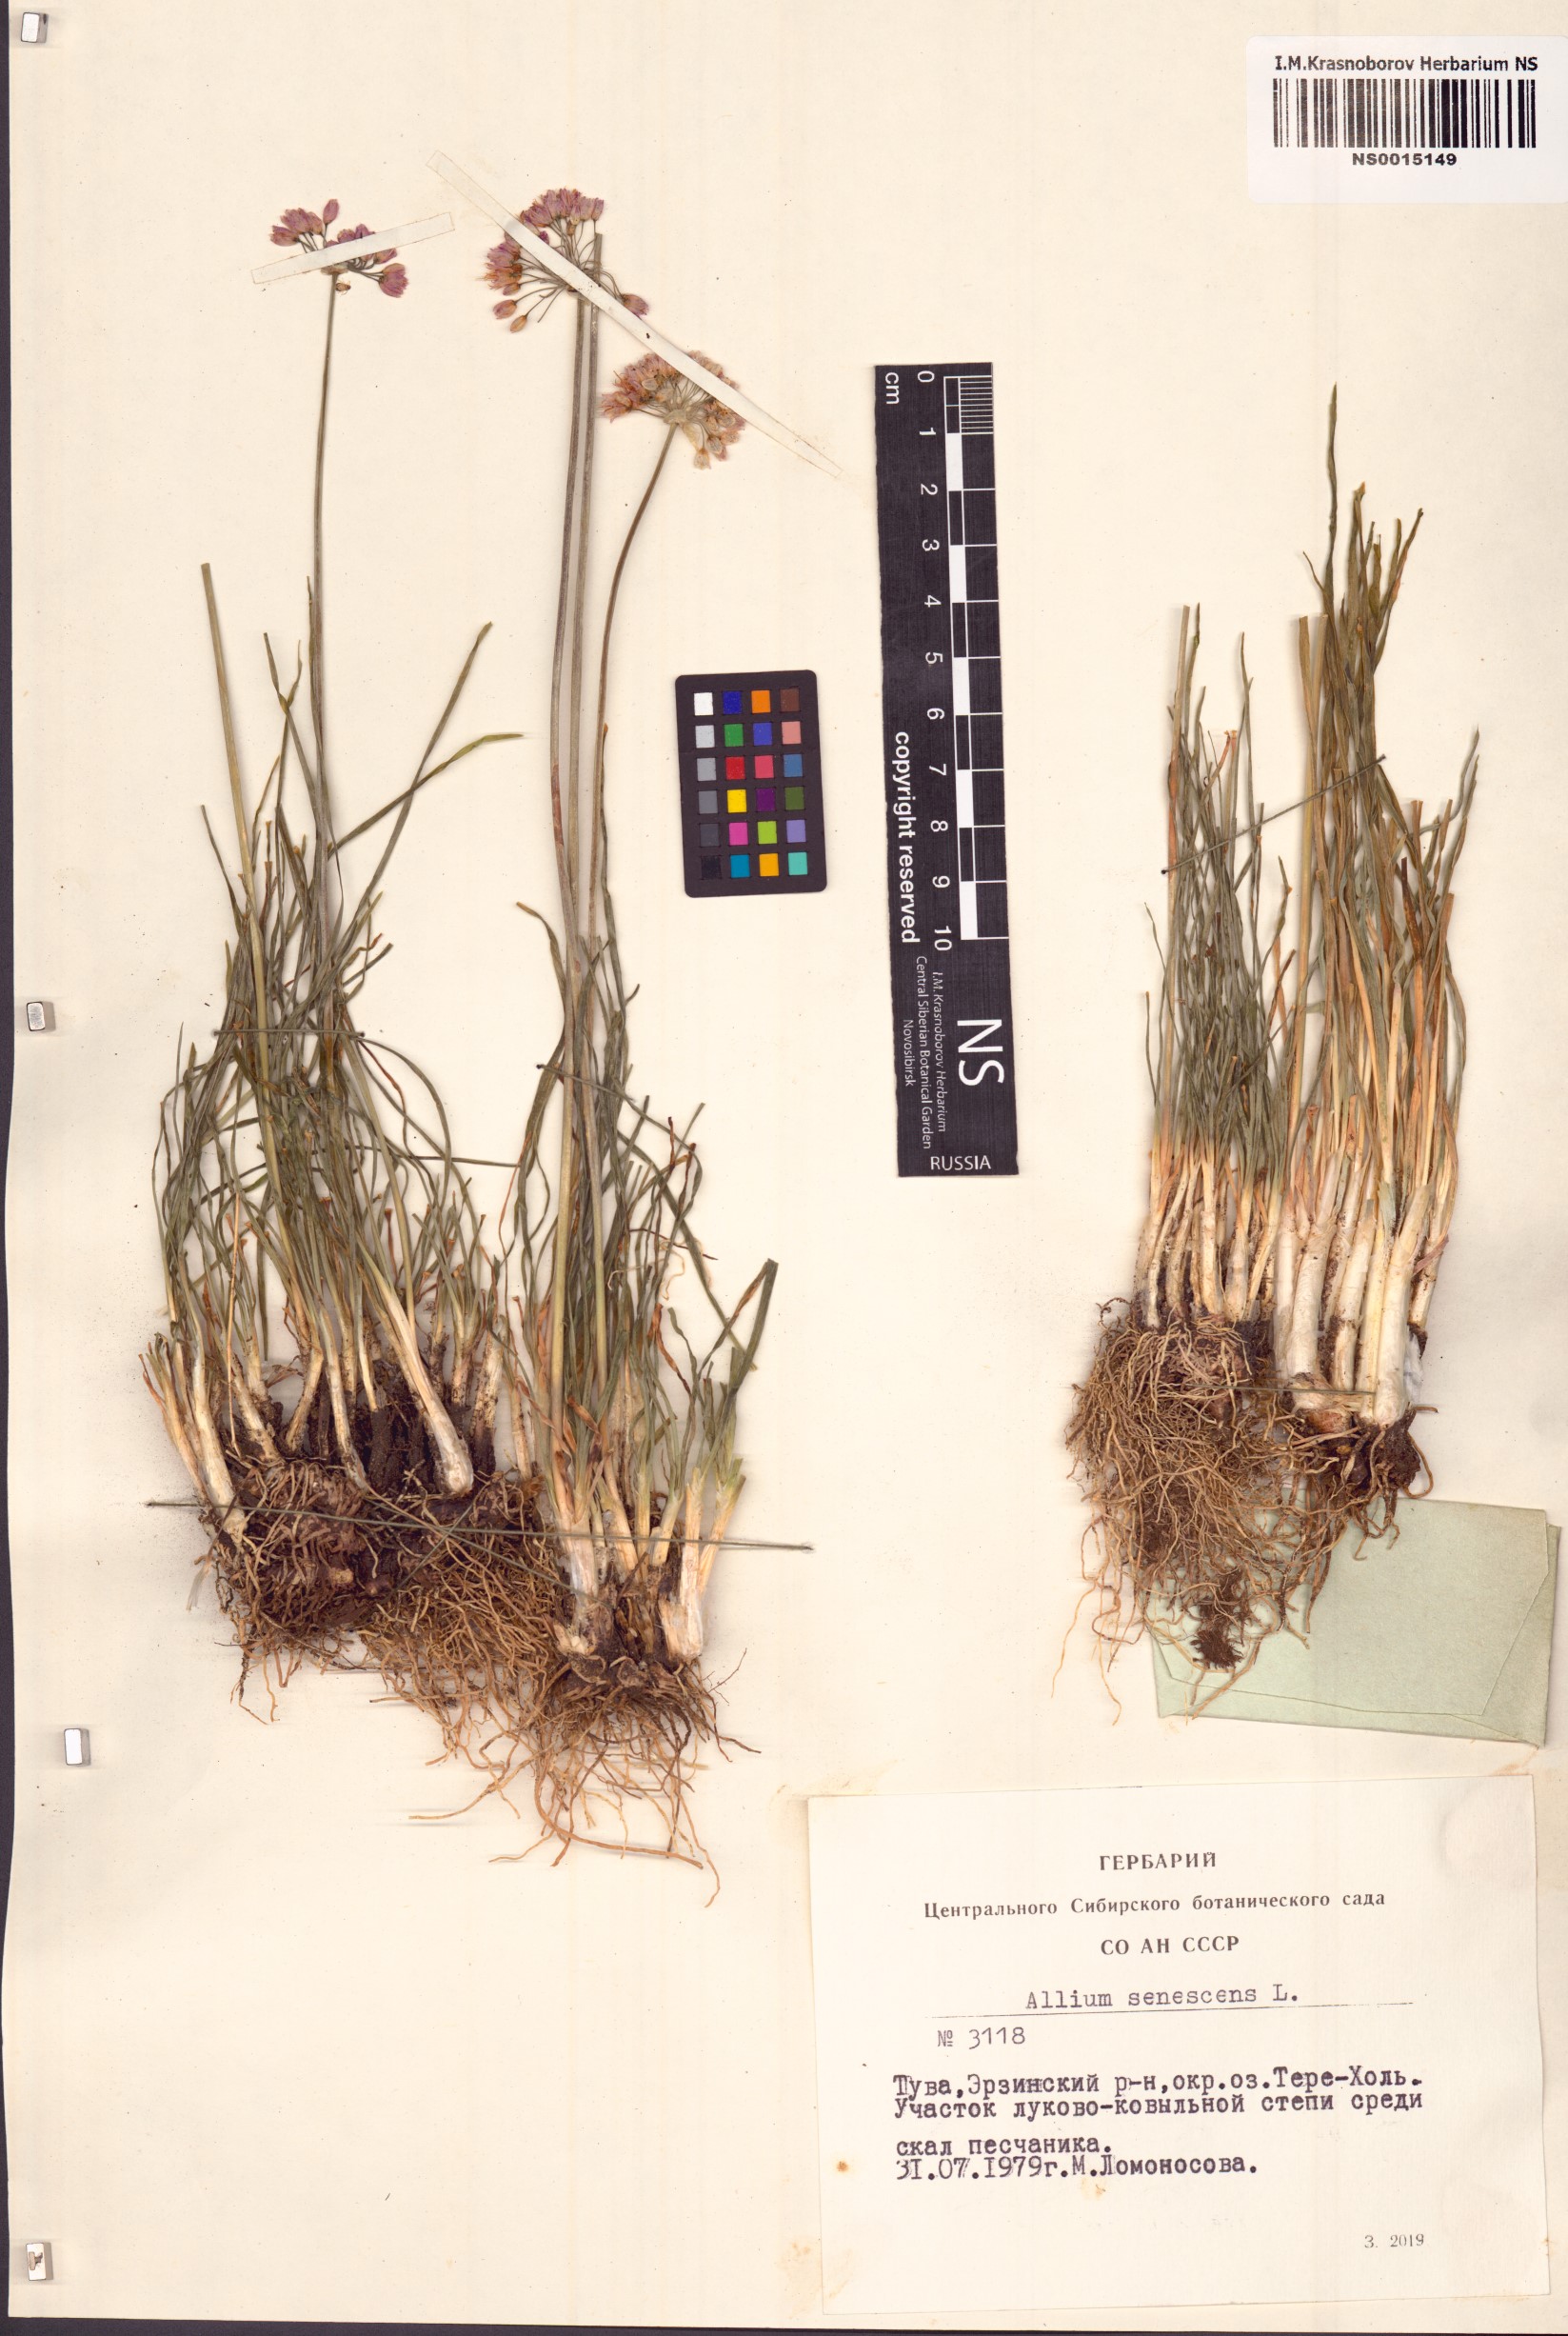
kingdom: Plantae
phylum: Tracheophyta
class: Liliopsida
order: Asparagales
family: Amaryllidaceae
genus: Allium
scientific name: Allium senescens
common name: German garlic
